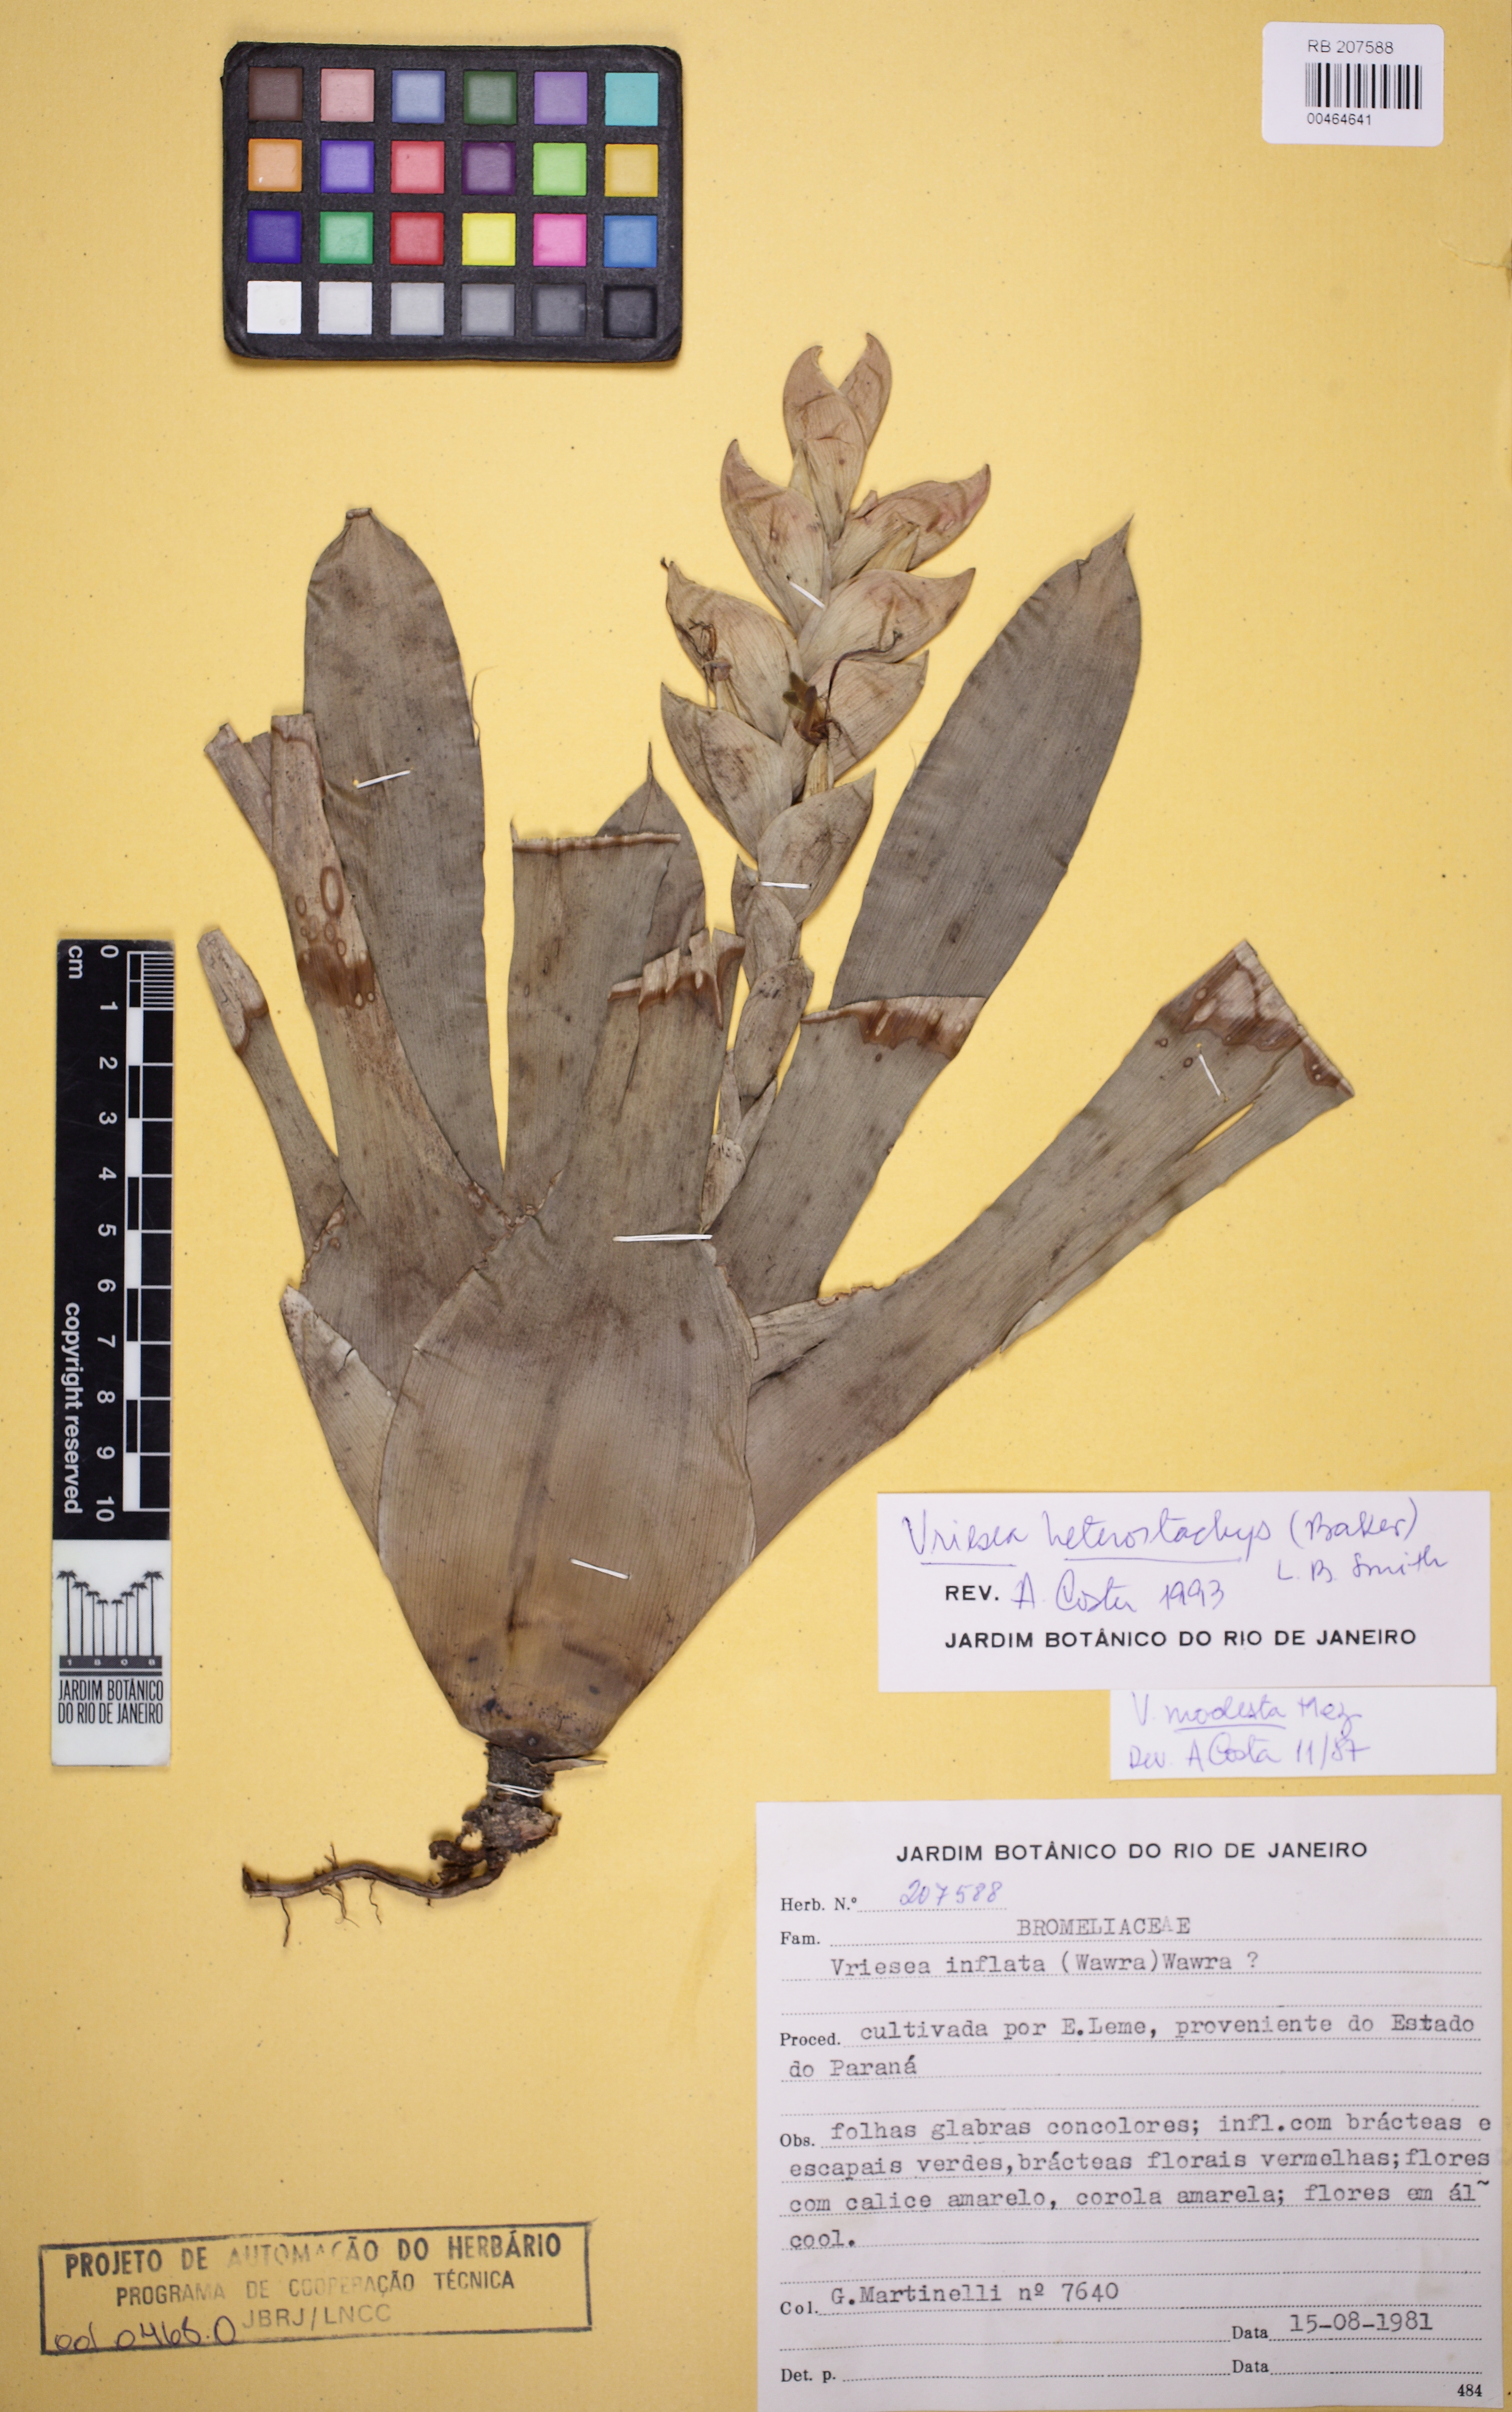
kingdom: Plantae
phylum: Tracheophyta
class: Liliopsida
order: Poales
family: Bromeliaceae
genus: Vriesea
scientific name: Vriesea heterostachys
